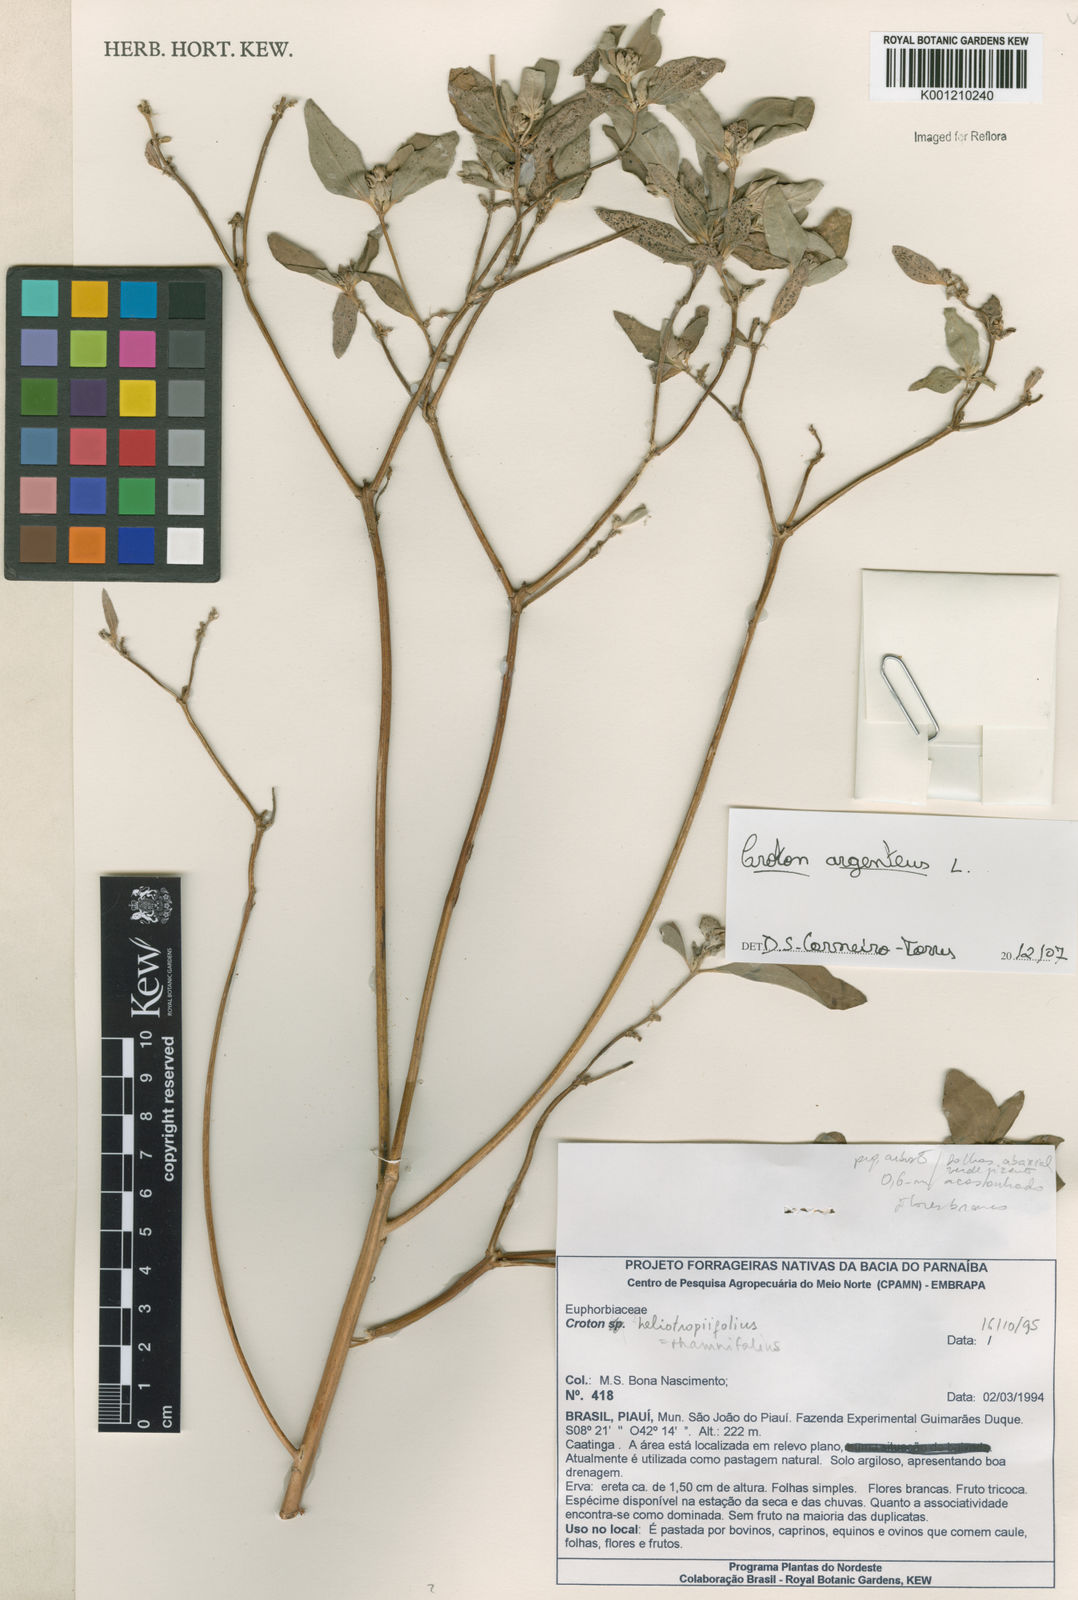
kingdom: Plantae
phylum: Tracheophyta
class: Magnoliopsida
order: Malpighiales
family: Euphorbiaceae
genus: Croton
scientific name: Croton argenteus
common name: Silver july croton
